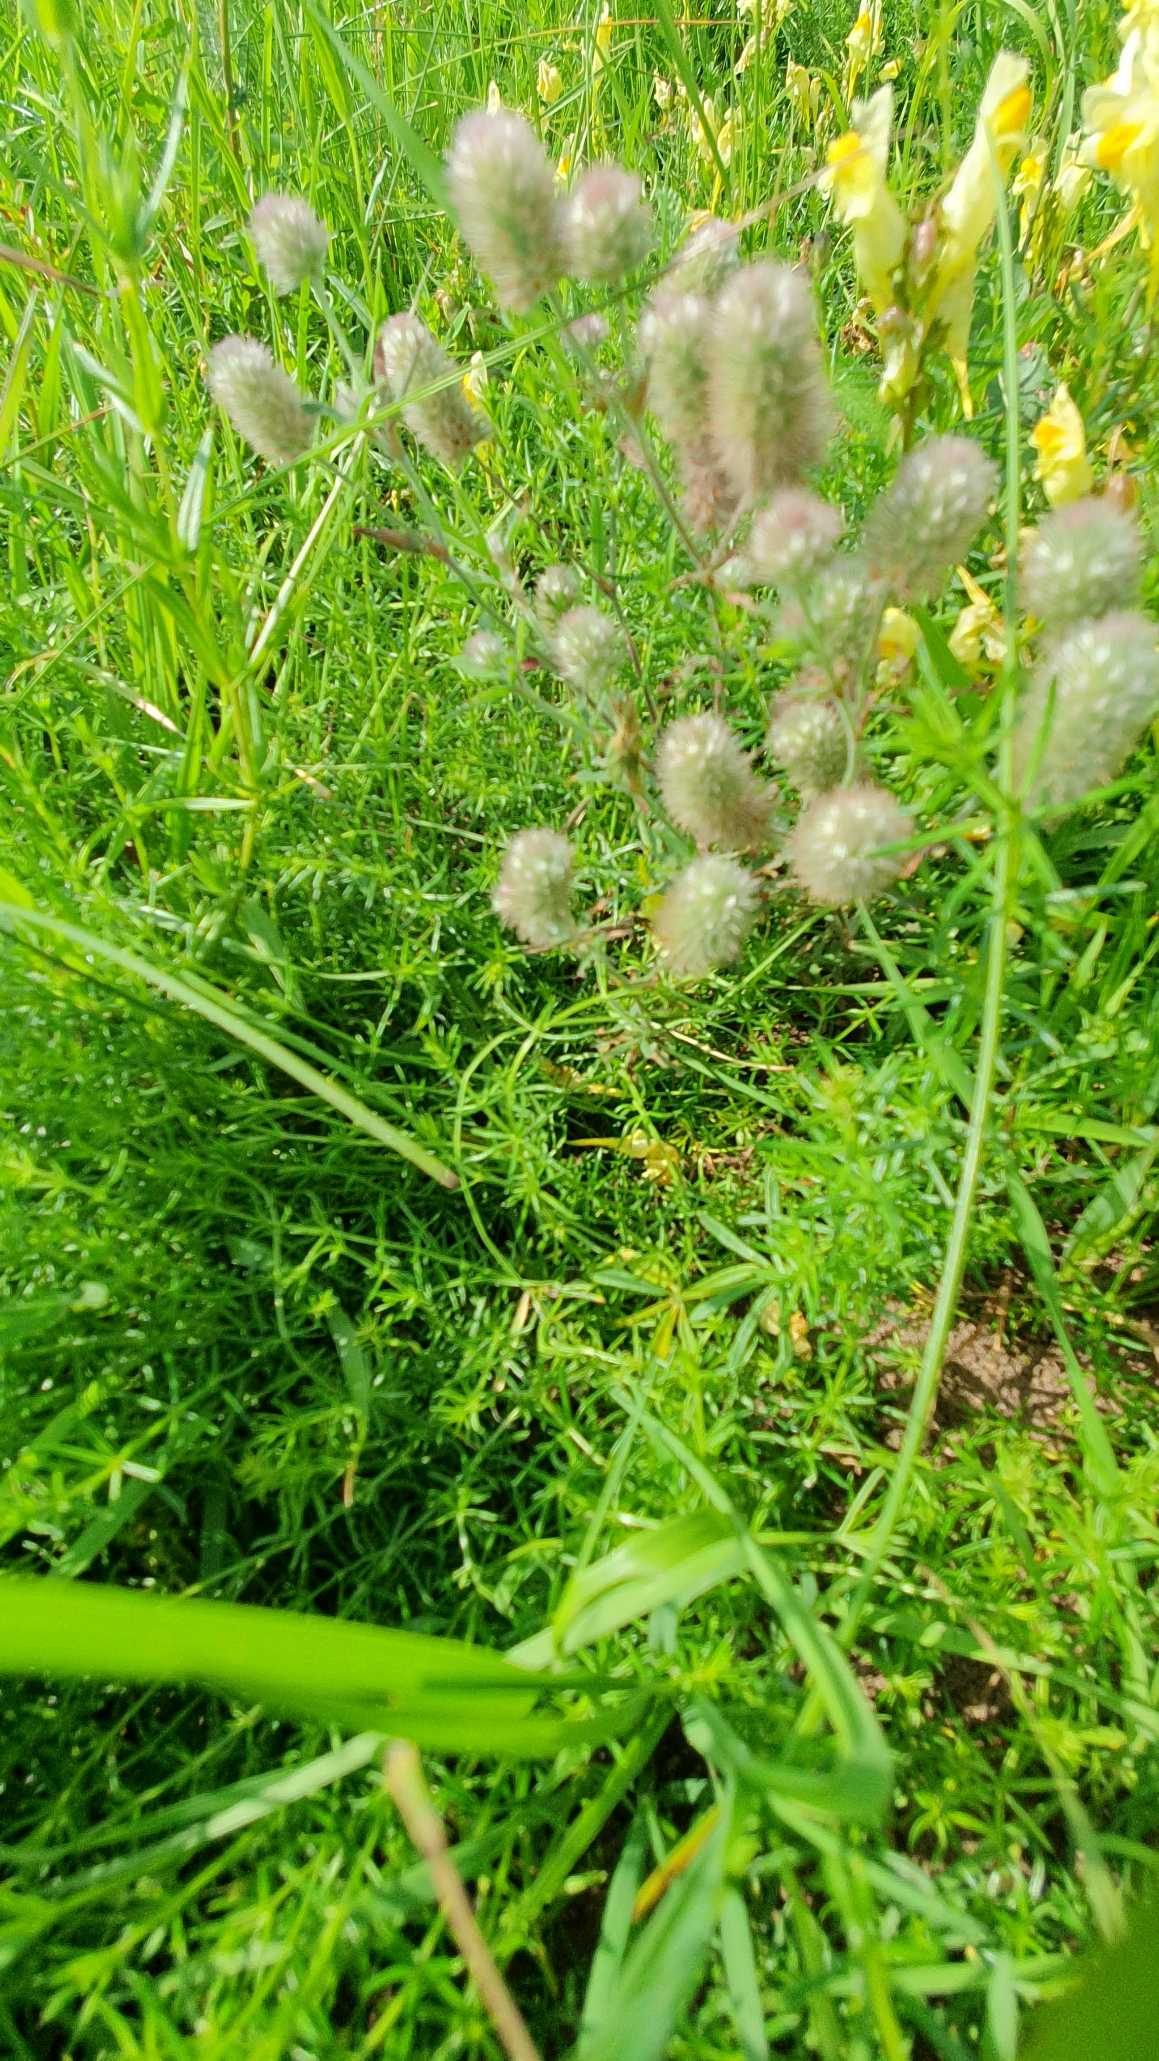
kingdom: Plantae
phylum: Tracheophyta
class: Magnoliopsida
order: Fabales
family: Fabaceae
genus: Trifolium
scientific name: Trifolium arvense
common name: Hare-kløver
